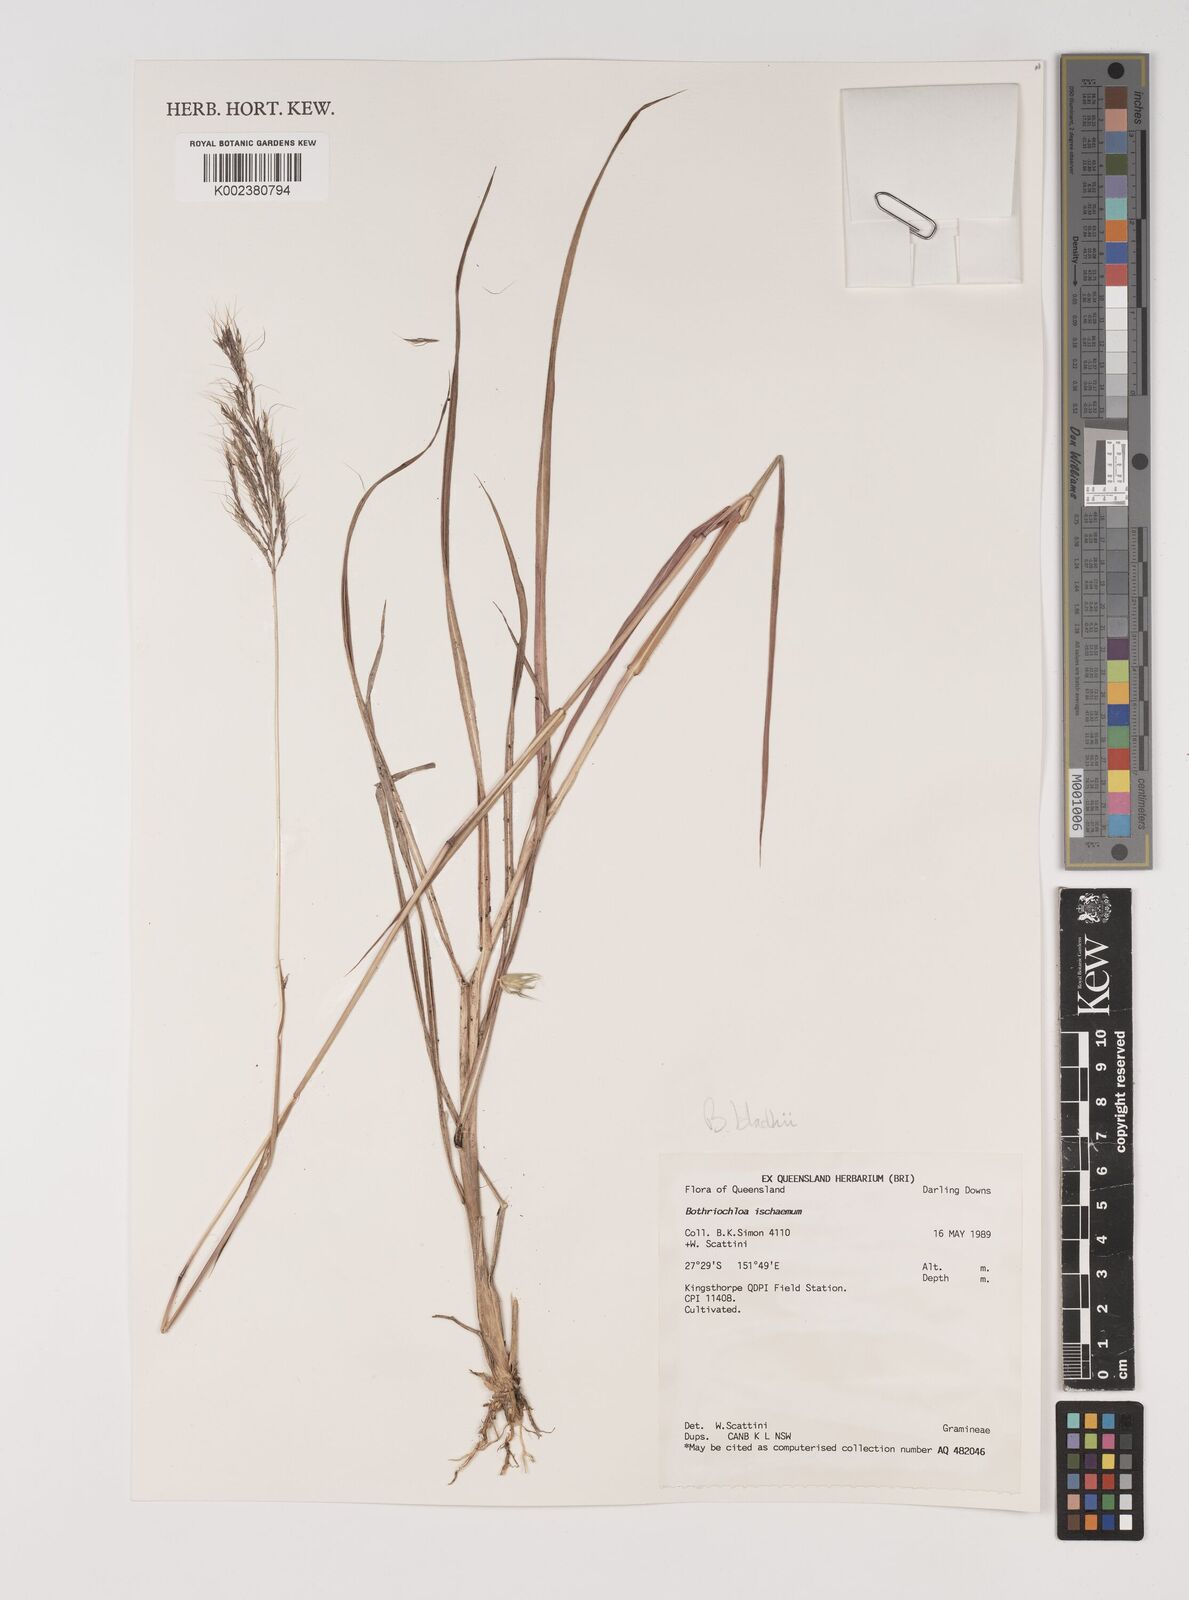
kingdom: Plantae
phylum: Tracheophyta
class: Liliopsida
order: Poales
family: Poaceae
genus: Bothriochloa
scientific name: Bothriochloa bladhii
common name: Caucasian bluestem
